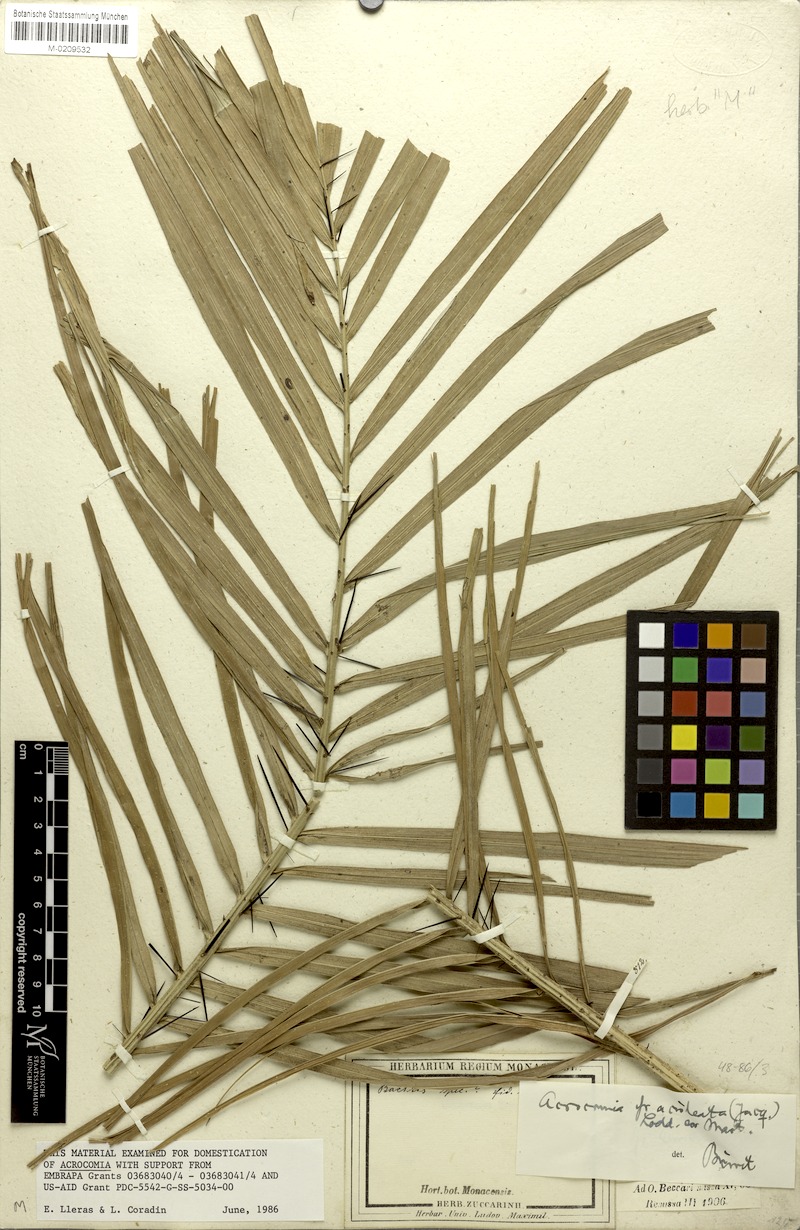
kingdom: Plantae
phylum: Tracheophyta
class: Liliopsida
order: Arecales
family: Arecaceae
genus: Acrocomia
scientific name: Acrocomia aculeata
